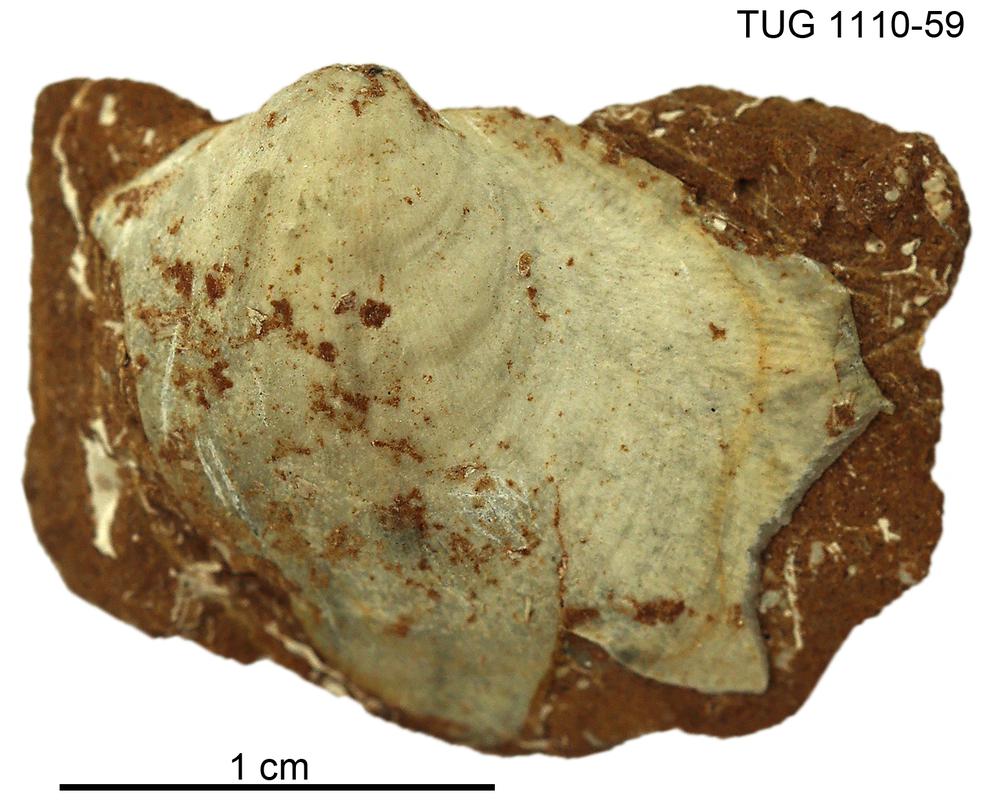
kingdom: Animalia
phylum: Brachiopoda
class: Rhynchonellata
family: Porambonitidae
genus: Porambonites
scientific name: Porambonites
